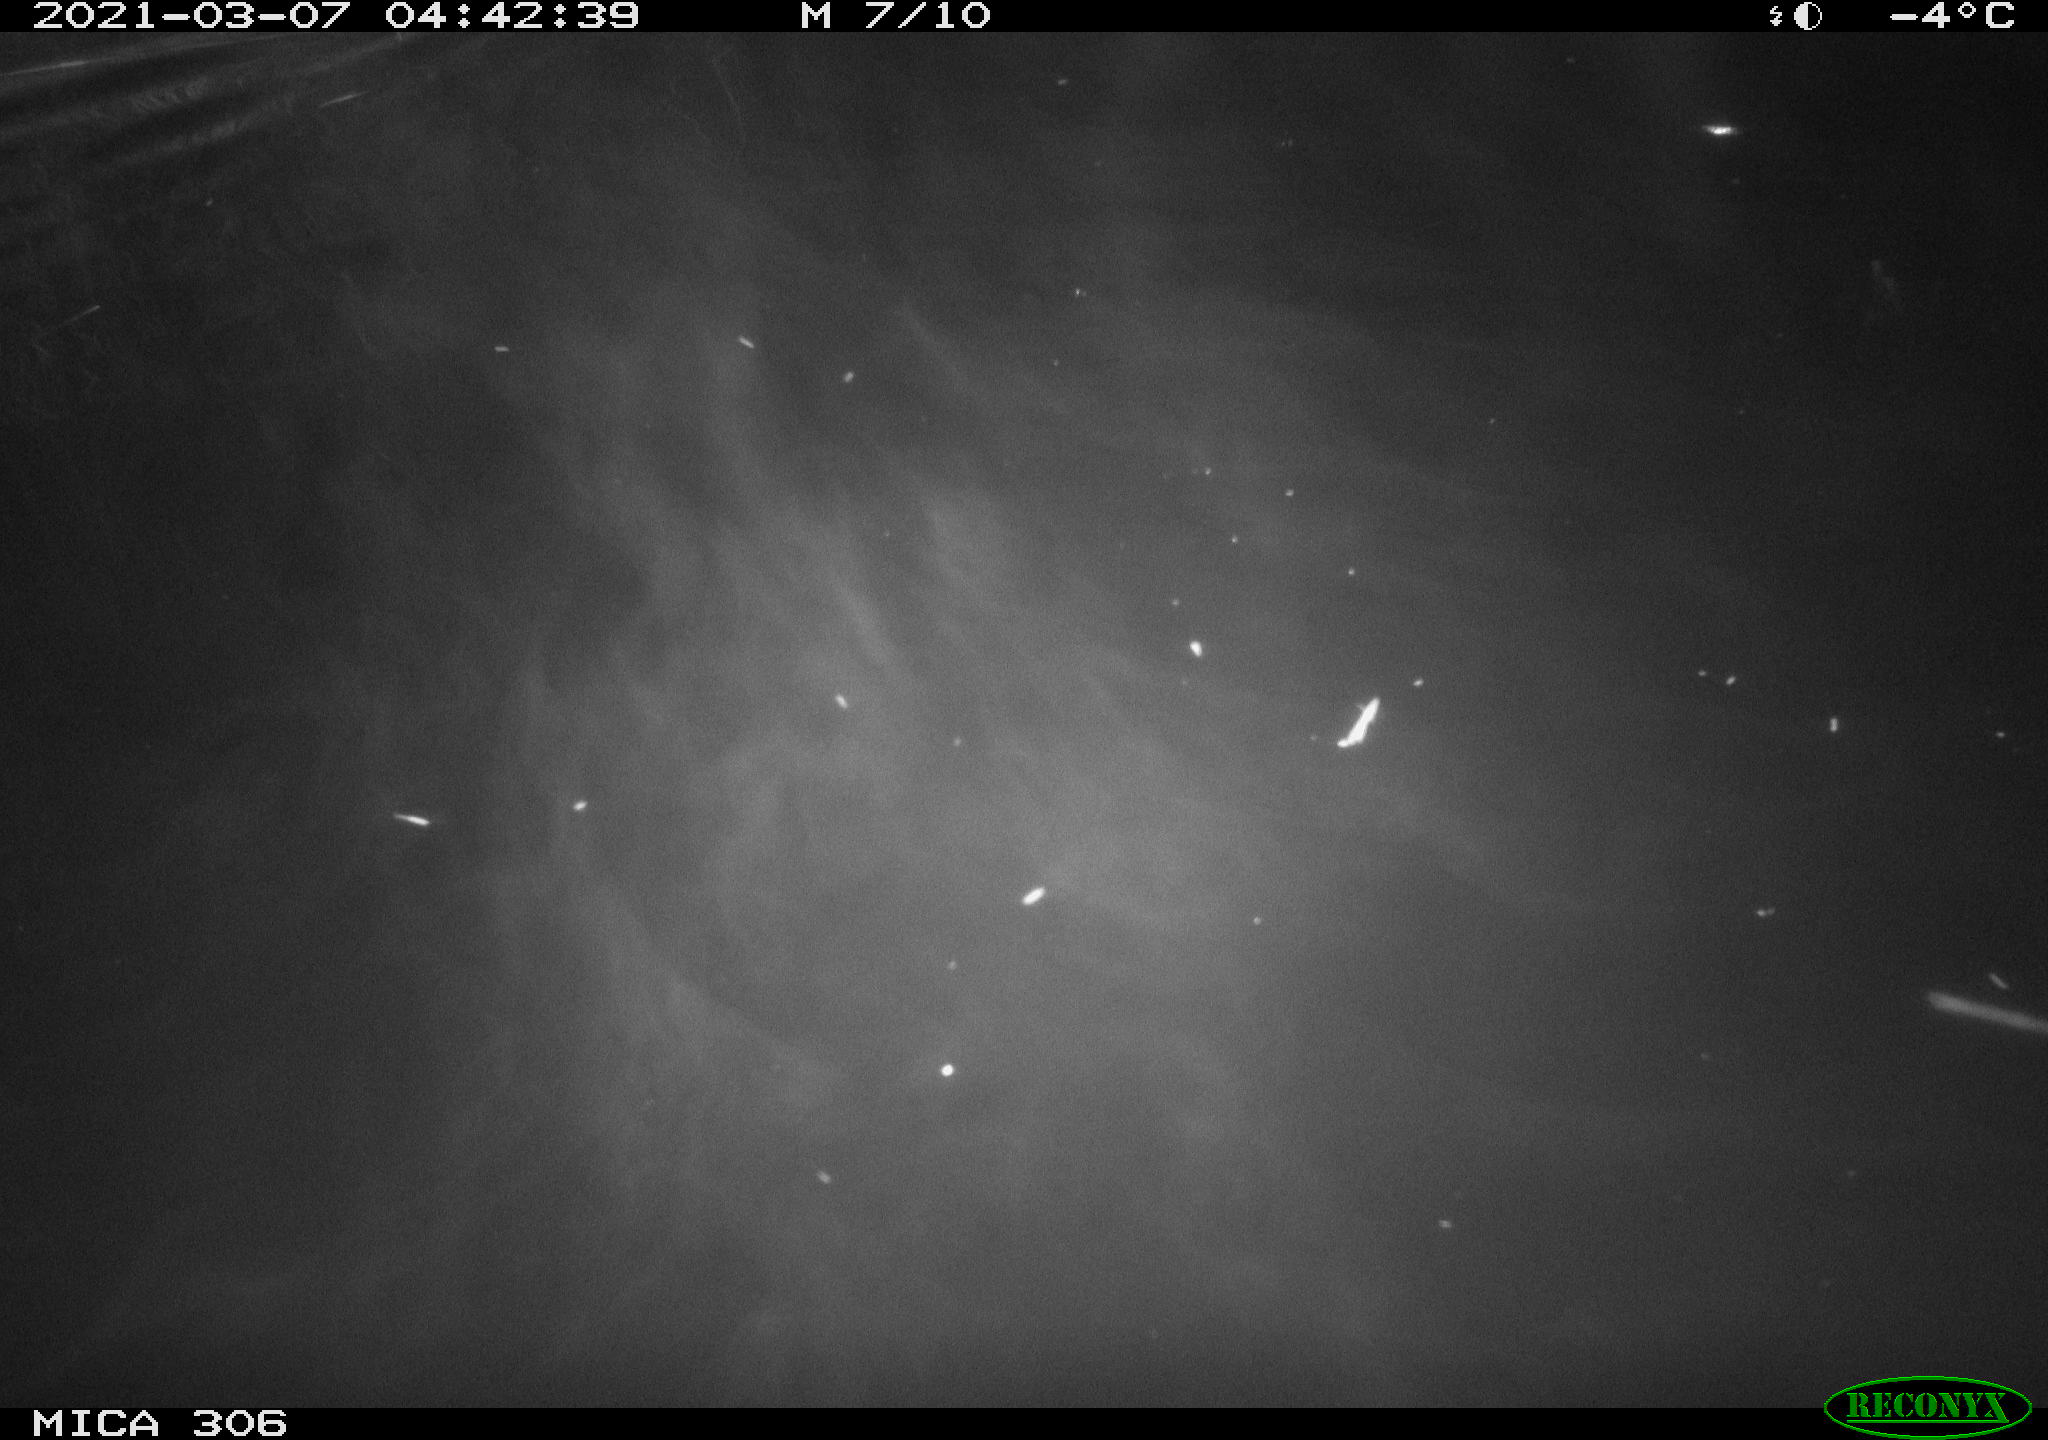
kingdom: Animalia
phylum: Chordata
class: Mammalia
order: Rodentia
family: Cricetidae
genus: Ondatra
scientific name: Ondatra zibethicus
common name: Muskrat
